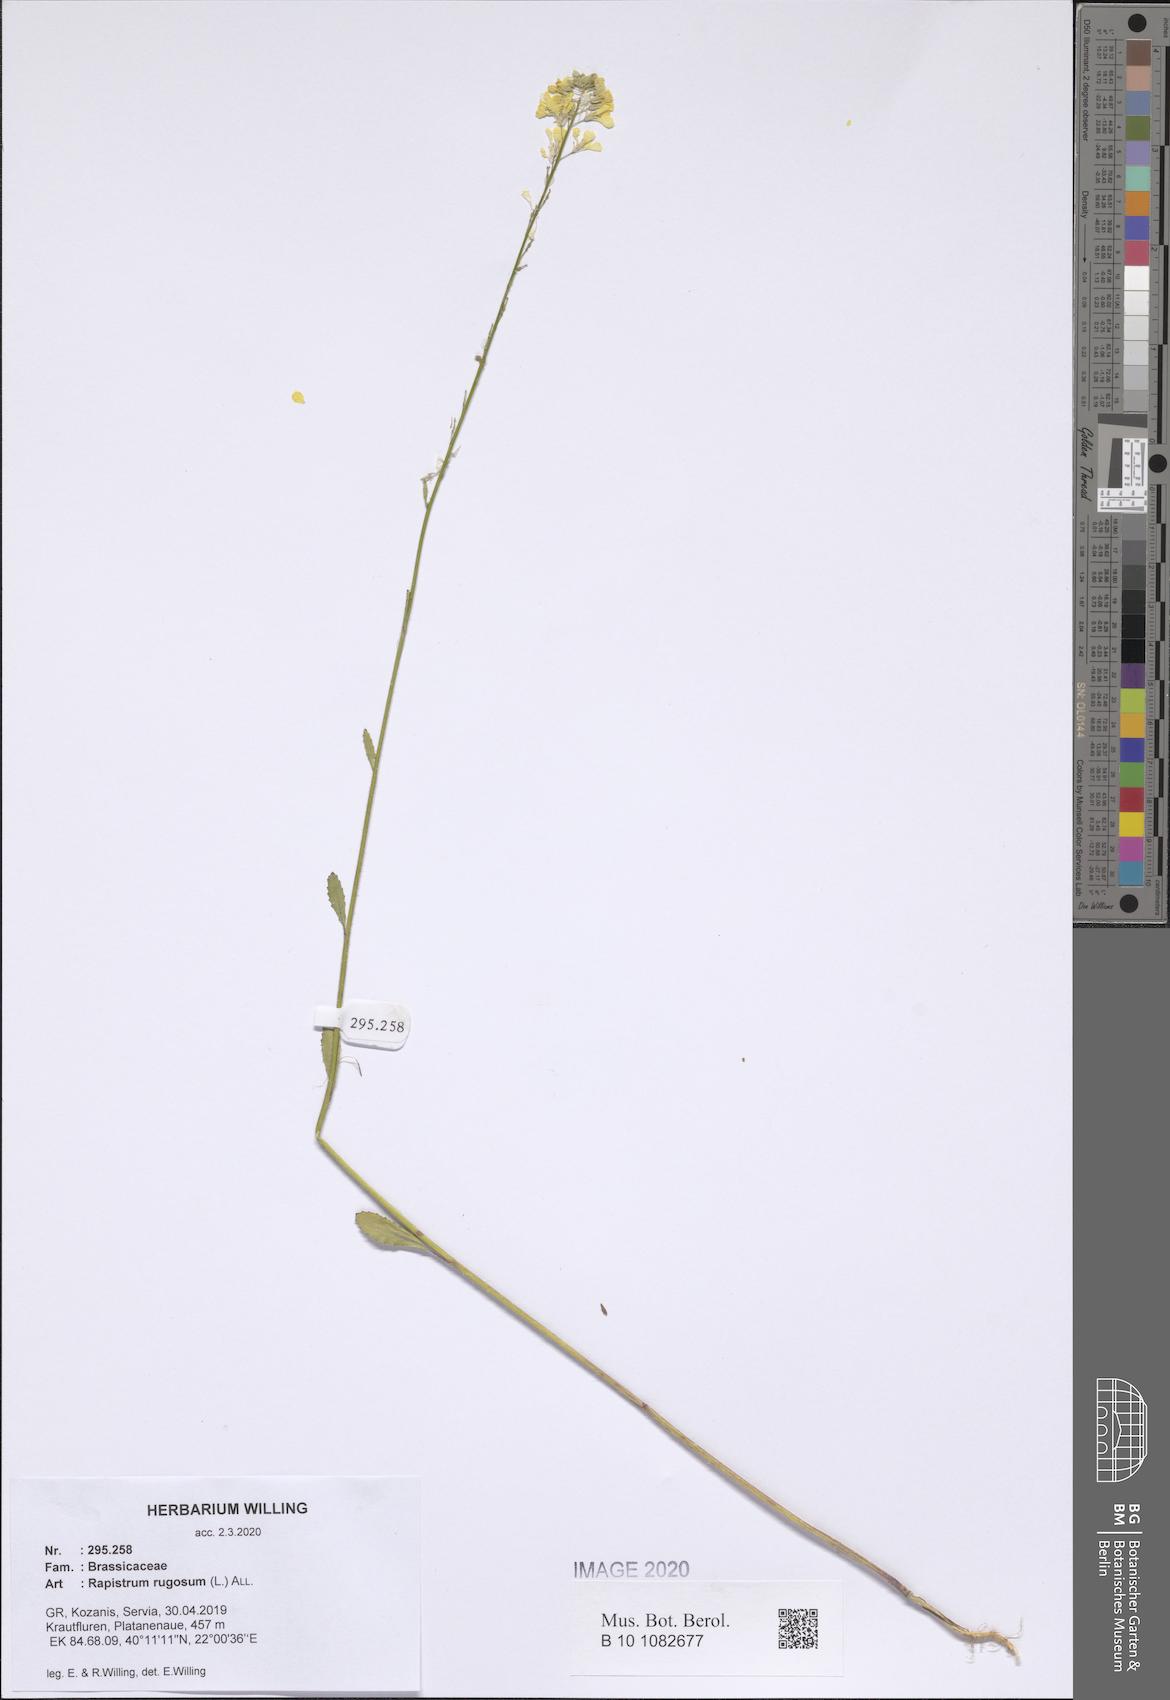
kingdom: Plantae
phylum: Tracheophyta
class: Magnoliopsida
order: Brassicales
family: Brassicaceae
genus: Rapistrum
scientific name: Rapistrum rugosum
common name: Annual bastardcabbage
